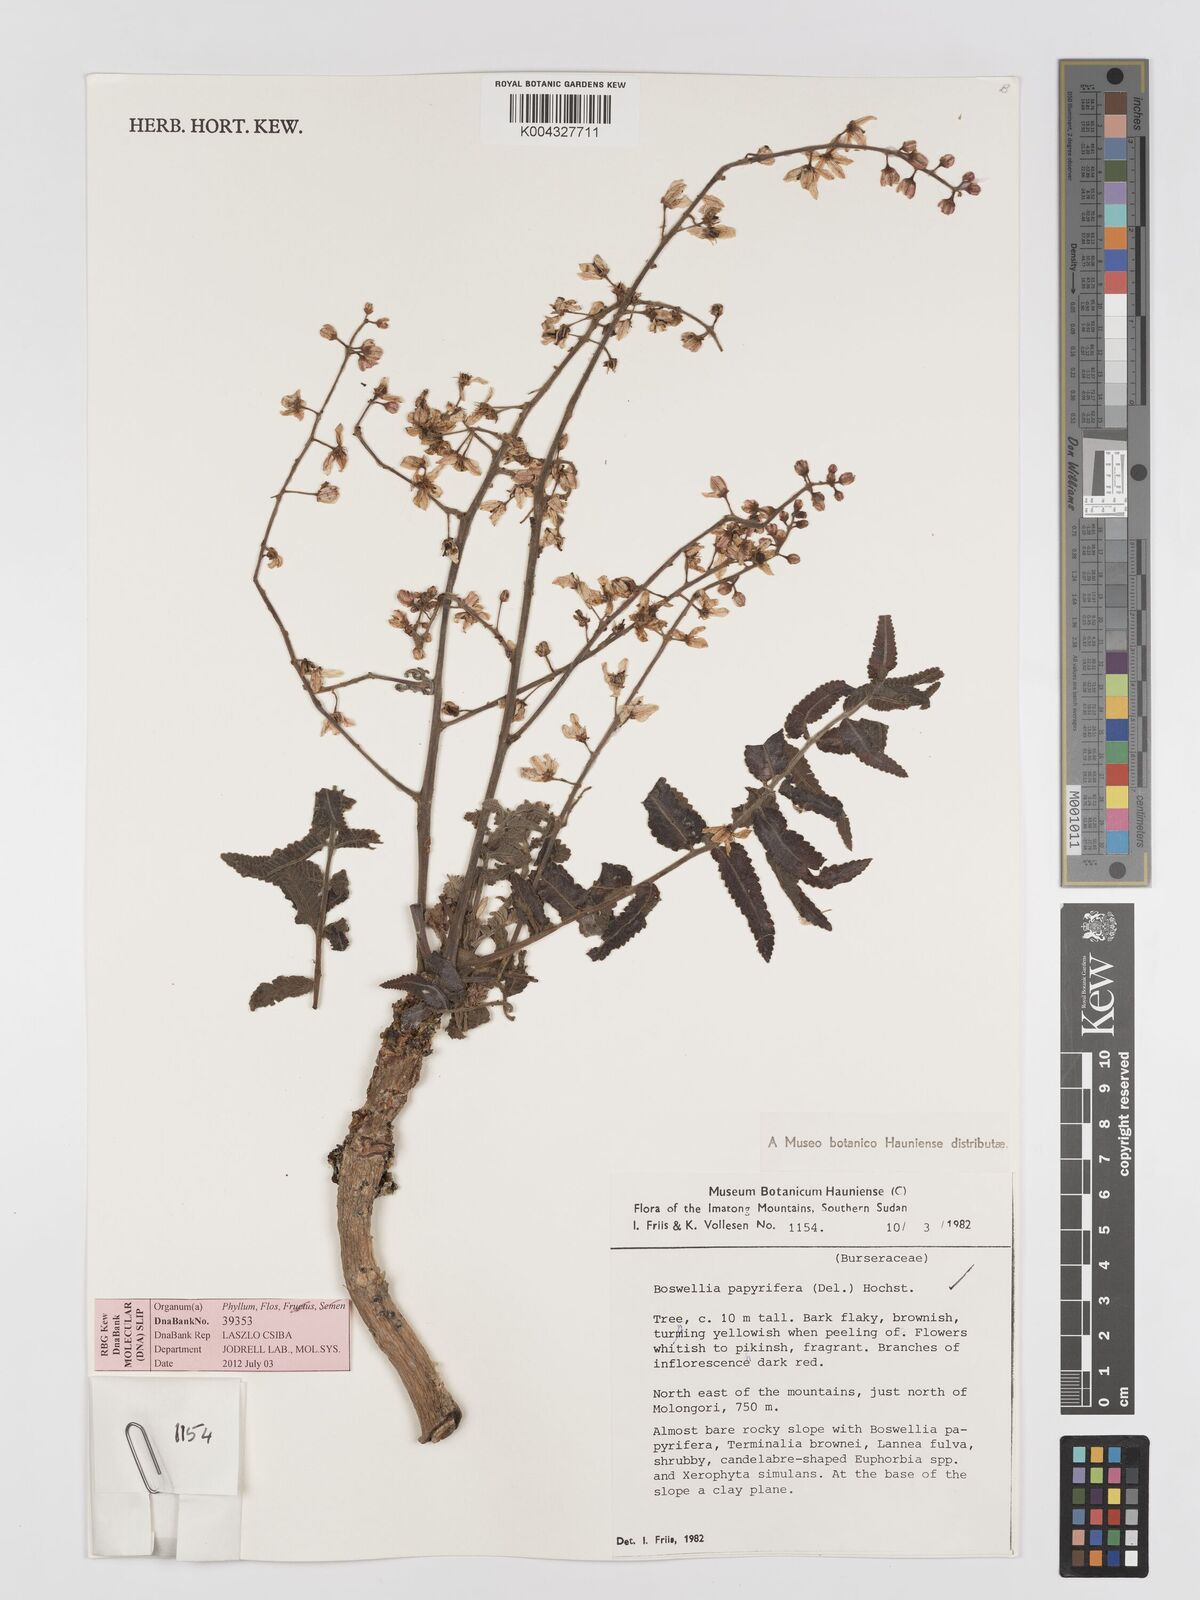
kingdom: Plantae
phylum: Tracheophyta
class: Magnoliopsida
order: Sapindales
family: Burseraceae
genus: Boswellia
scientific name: Boswellia papyrifera
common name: Sudanese frankincense
